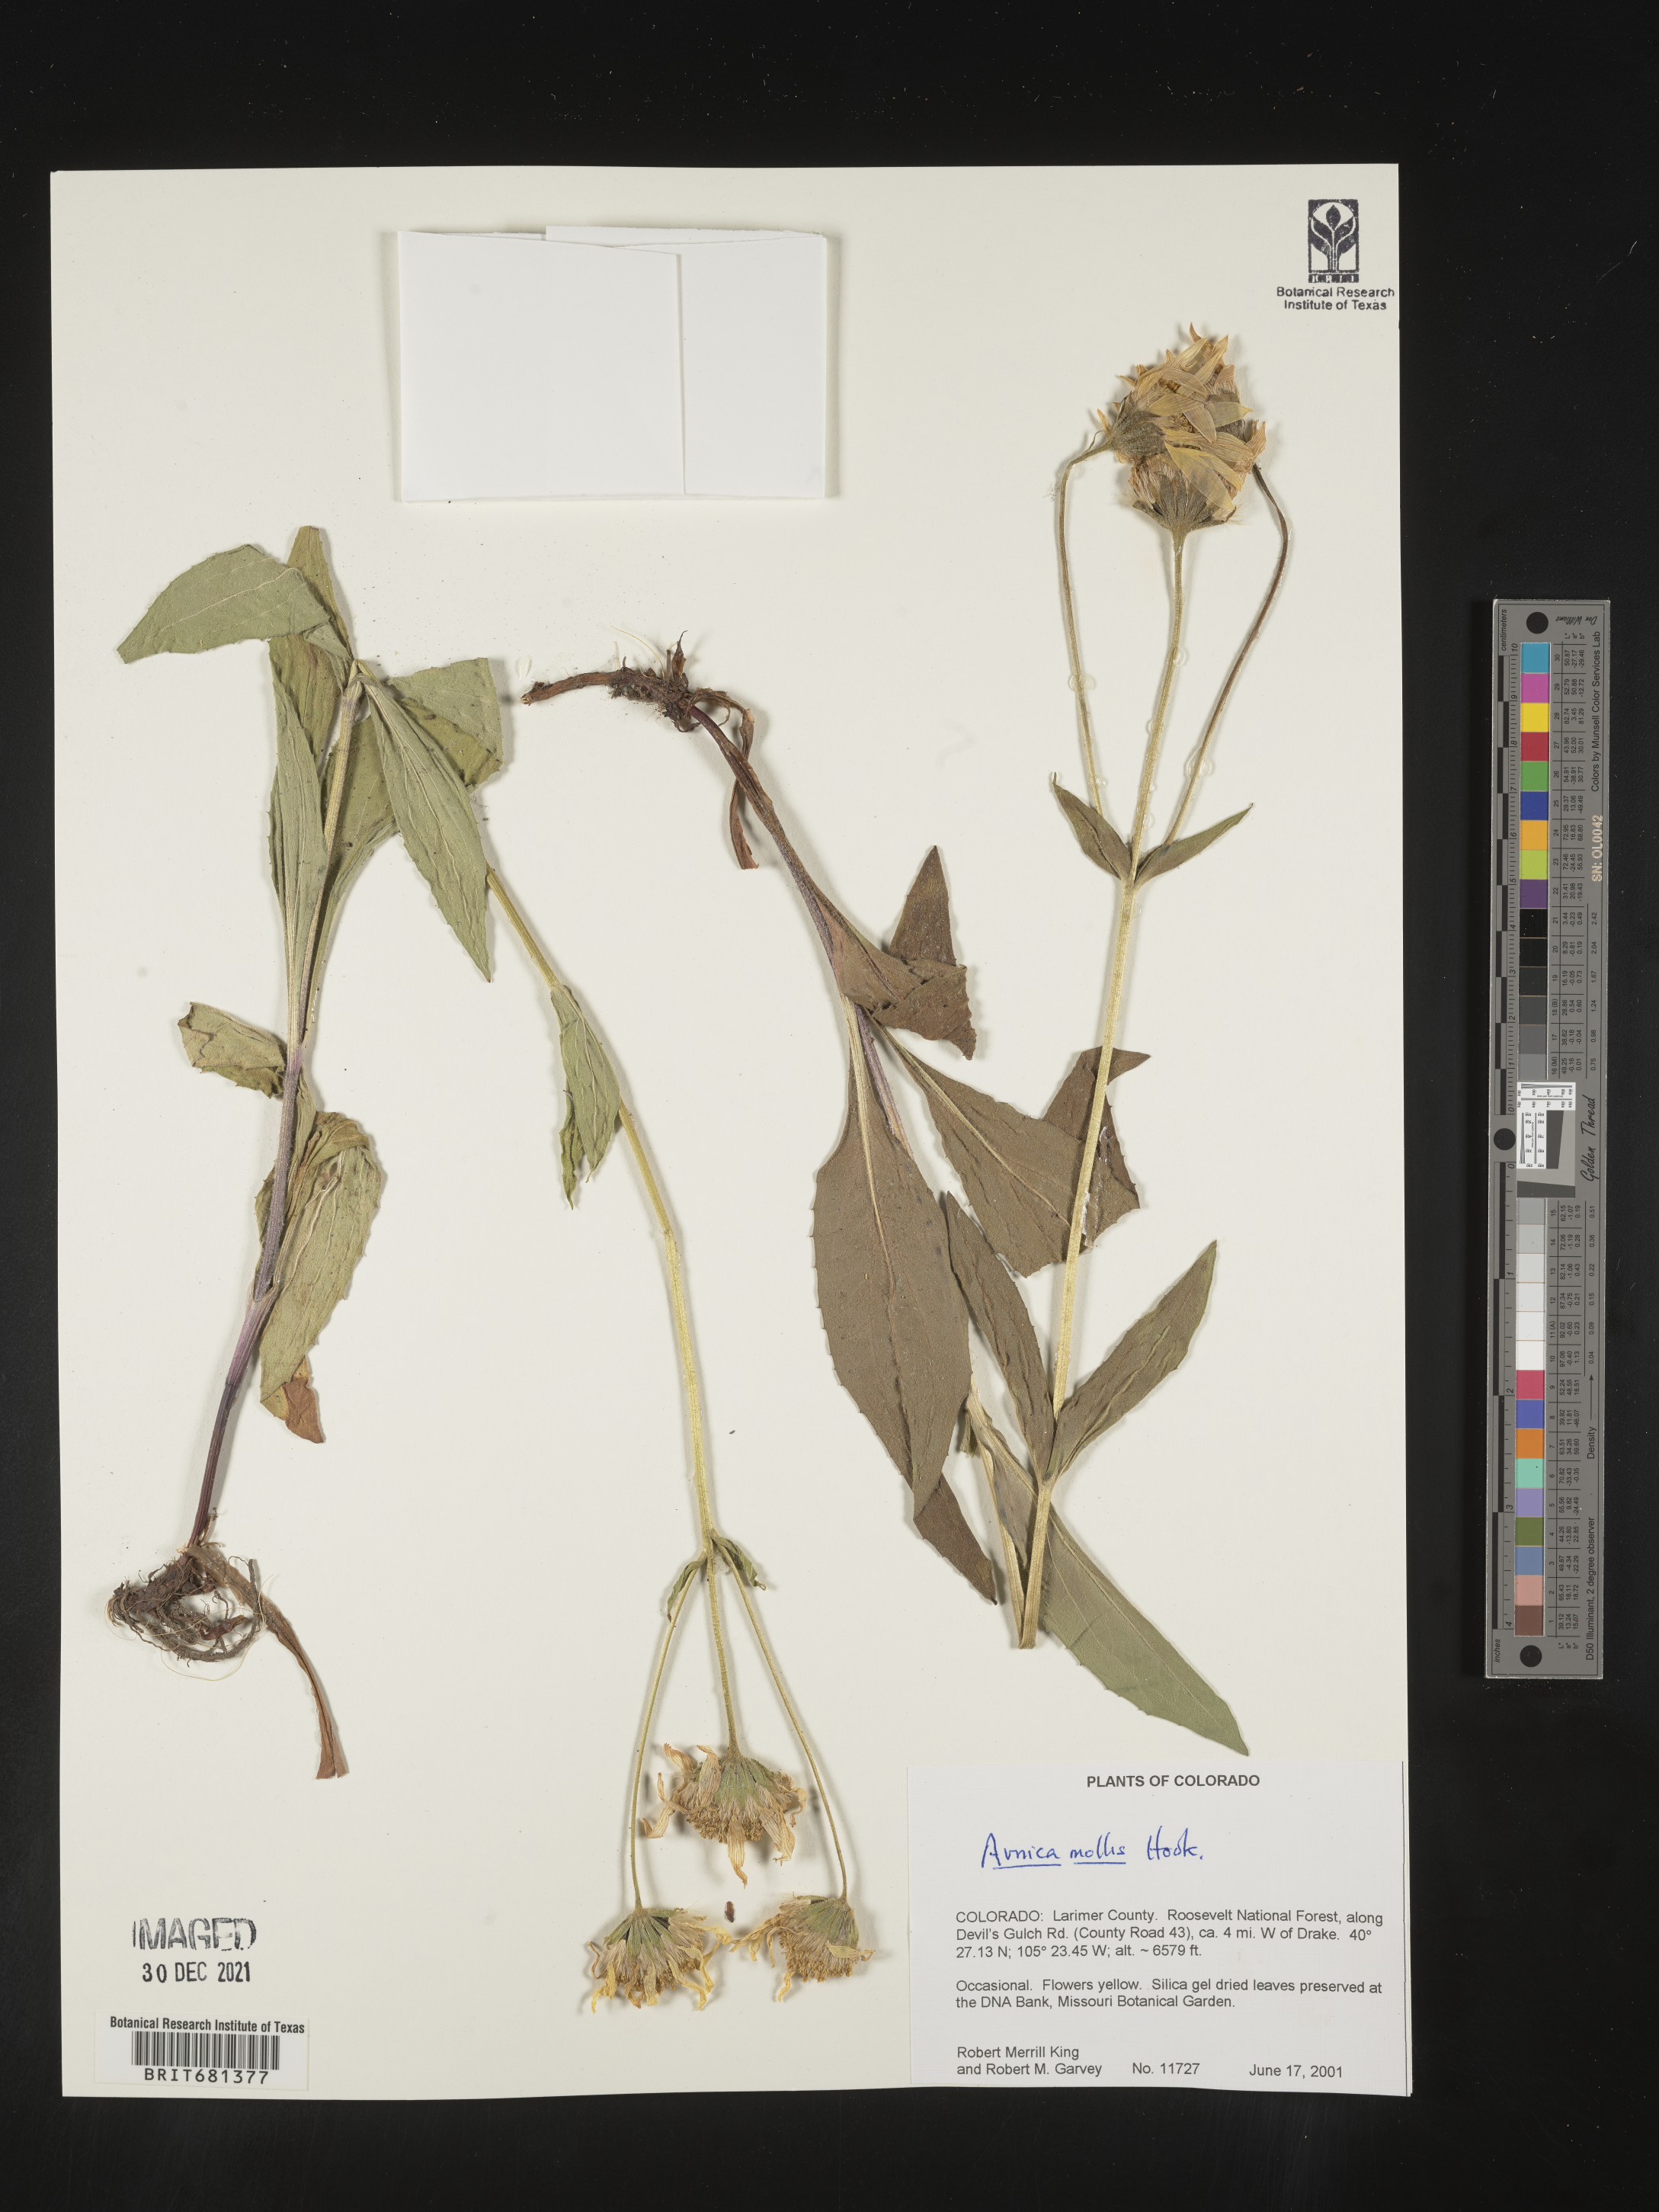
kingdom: Plantae
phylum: Tracheophyta
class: Magnoliopsida
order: Asterales
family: Asteraceae
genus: Arnica
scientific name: Arnica mollis
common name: Hairy arnica
